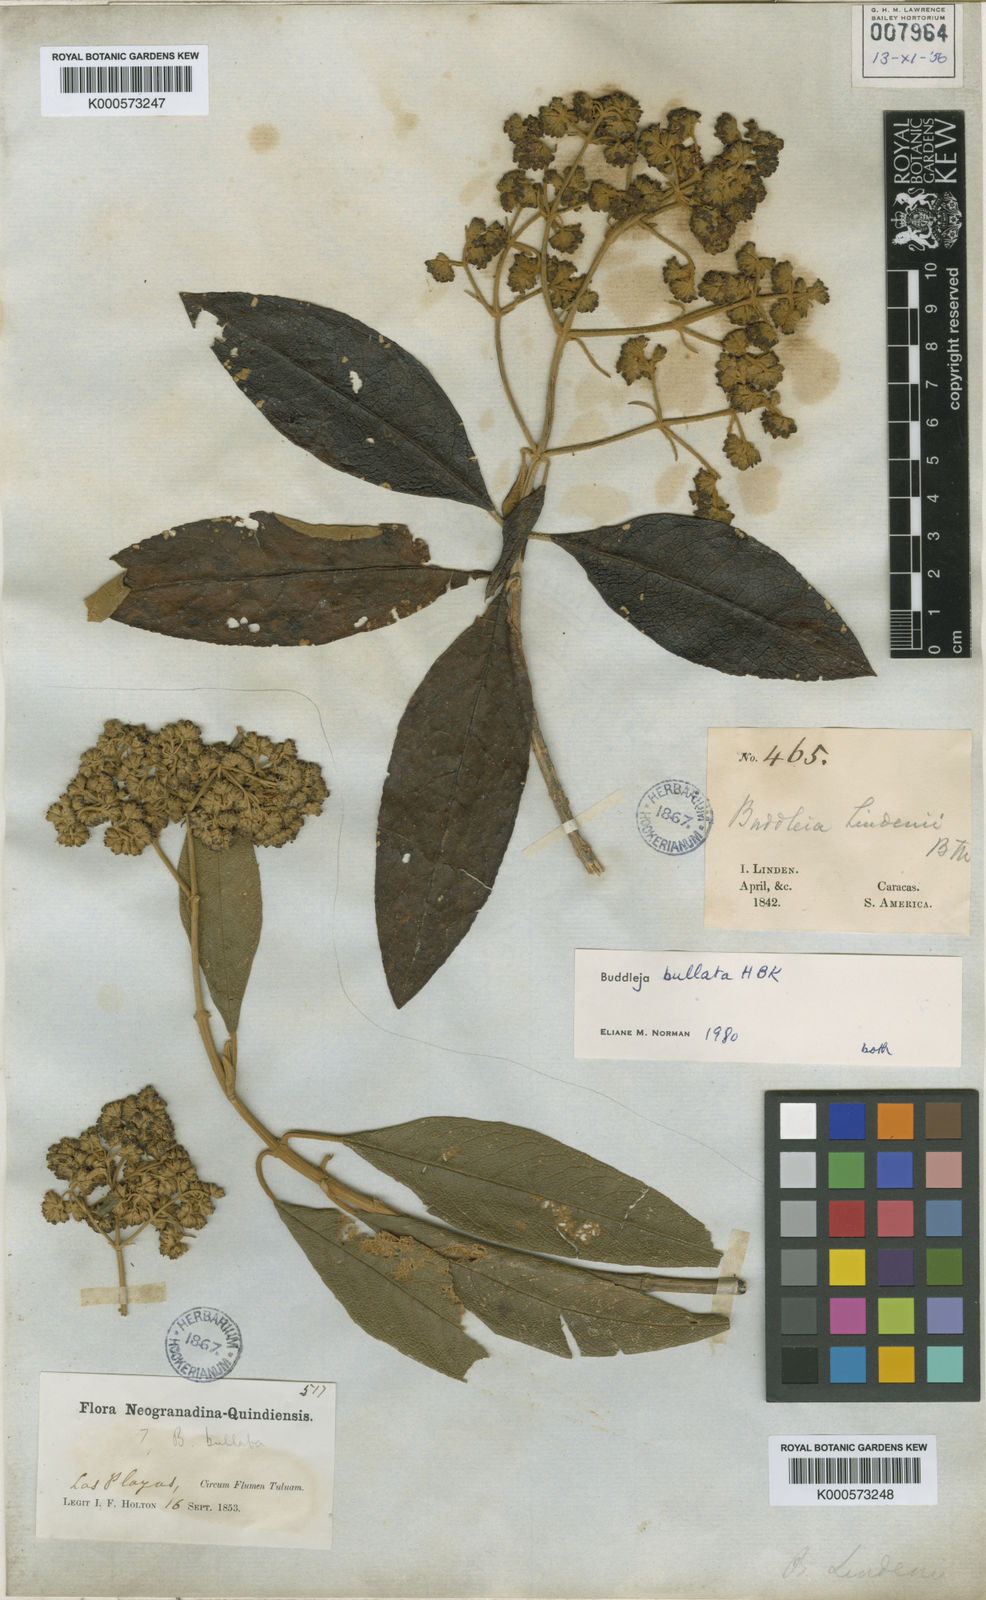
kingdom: Plantae
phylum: Tracheophyta
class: Magnoliopsida
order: Lamiales
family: Scrophulariaceae
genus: Buddleja
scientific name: Buddleja bullata
